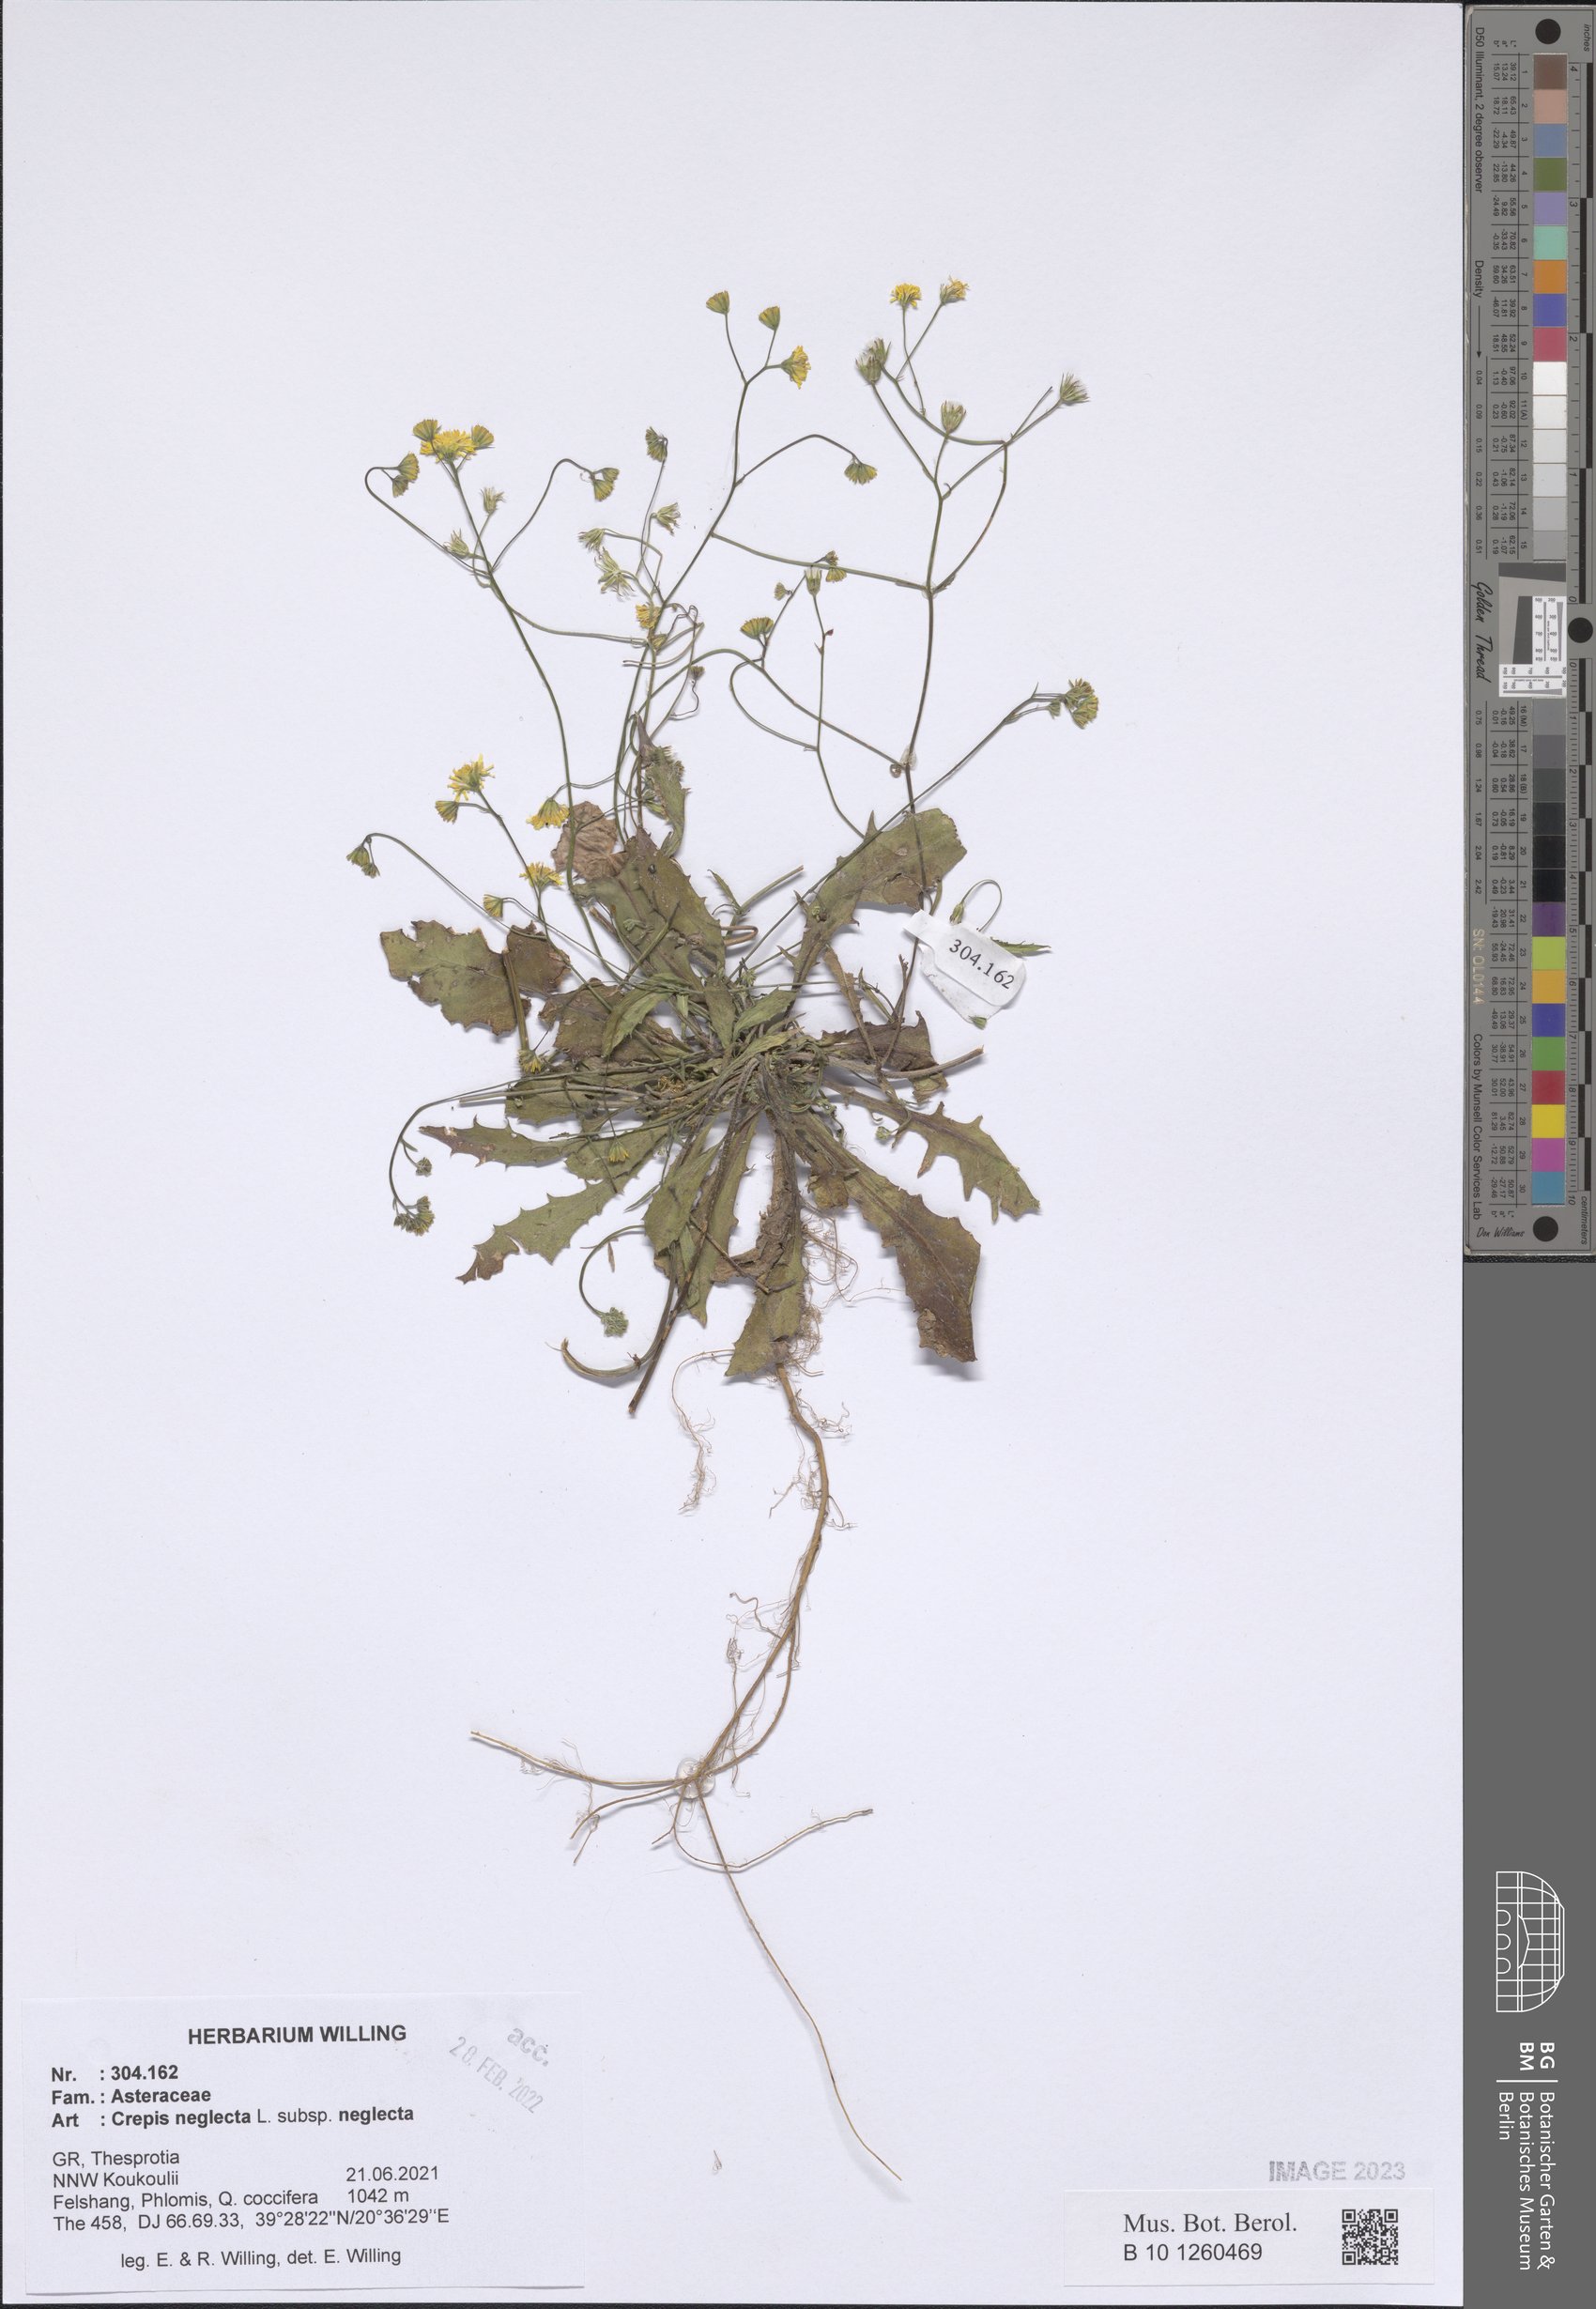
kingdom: Plantae
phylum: Tracheophyta
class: Magnoliopsida
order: Asterales
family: Asteraceae
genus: Crepis
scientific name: Crepis neglecta
